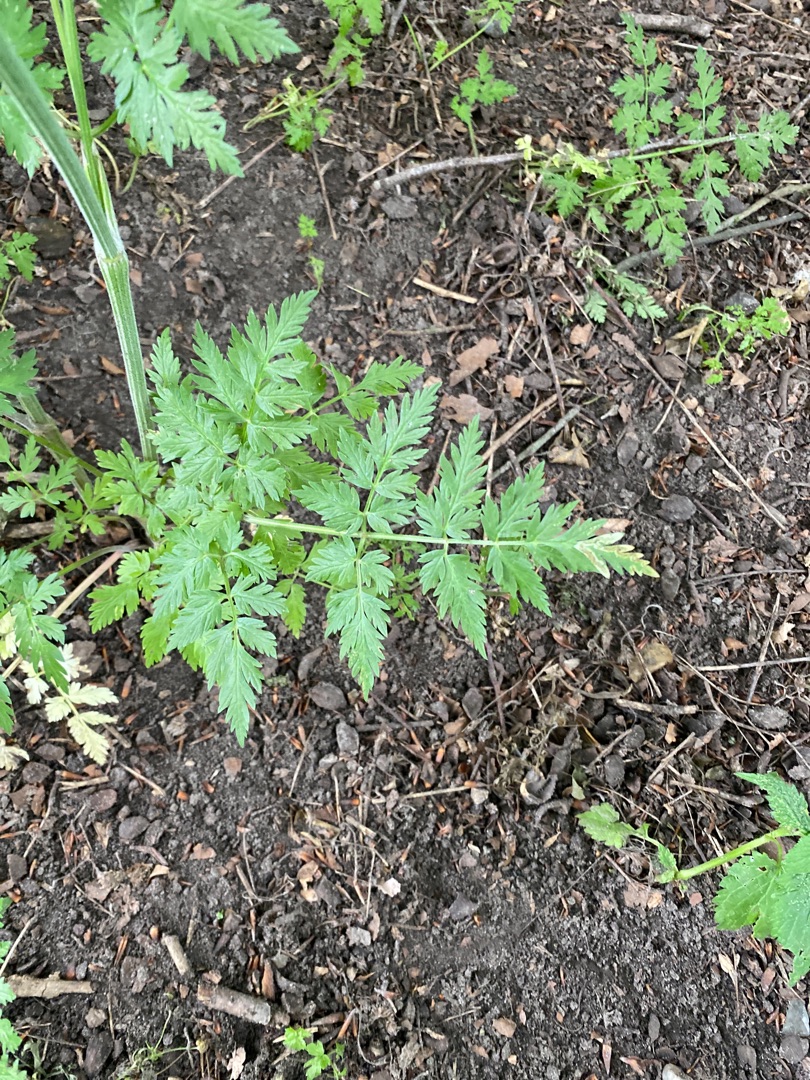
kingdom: Plantae
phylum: Tracheophyta
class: Magnoliopsida
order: Apiales
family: Apiaceae
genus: Anthriscus
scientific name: Anthriscus sylvestris
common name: Vild kørvel
